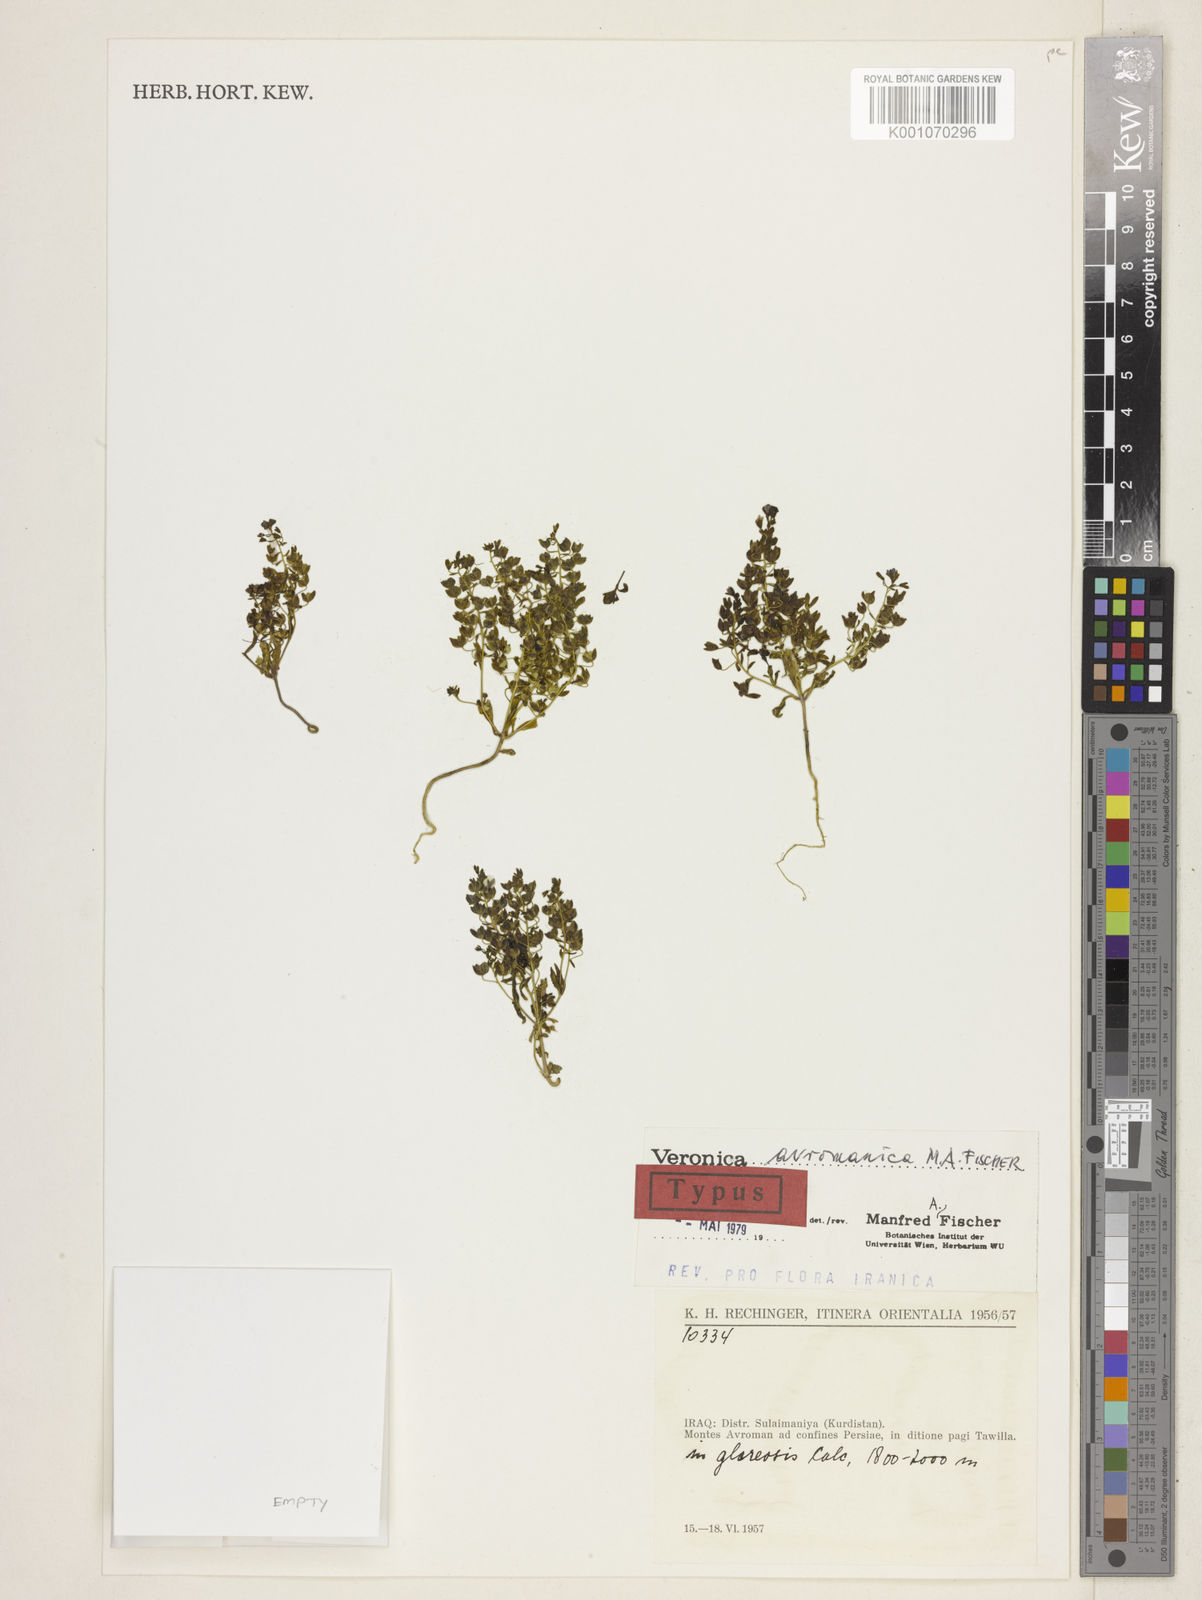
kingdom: Plantae
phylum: Tracheophyta
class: Magnoliopsida
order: Lamiales
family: Plantaginaceae
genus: Veronica
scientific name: Veronica avromanica
